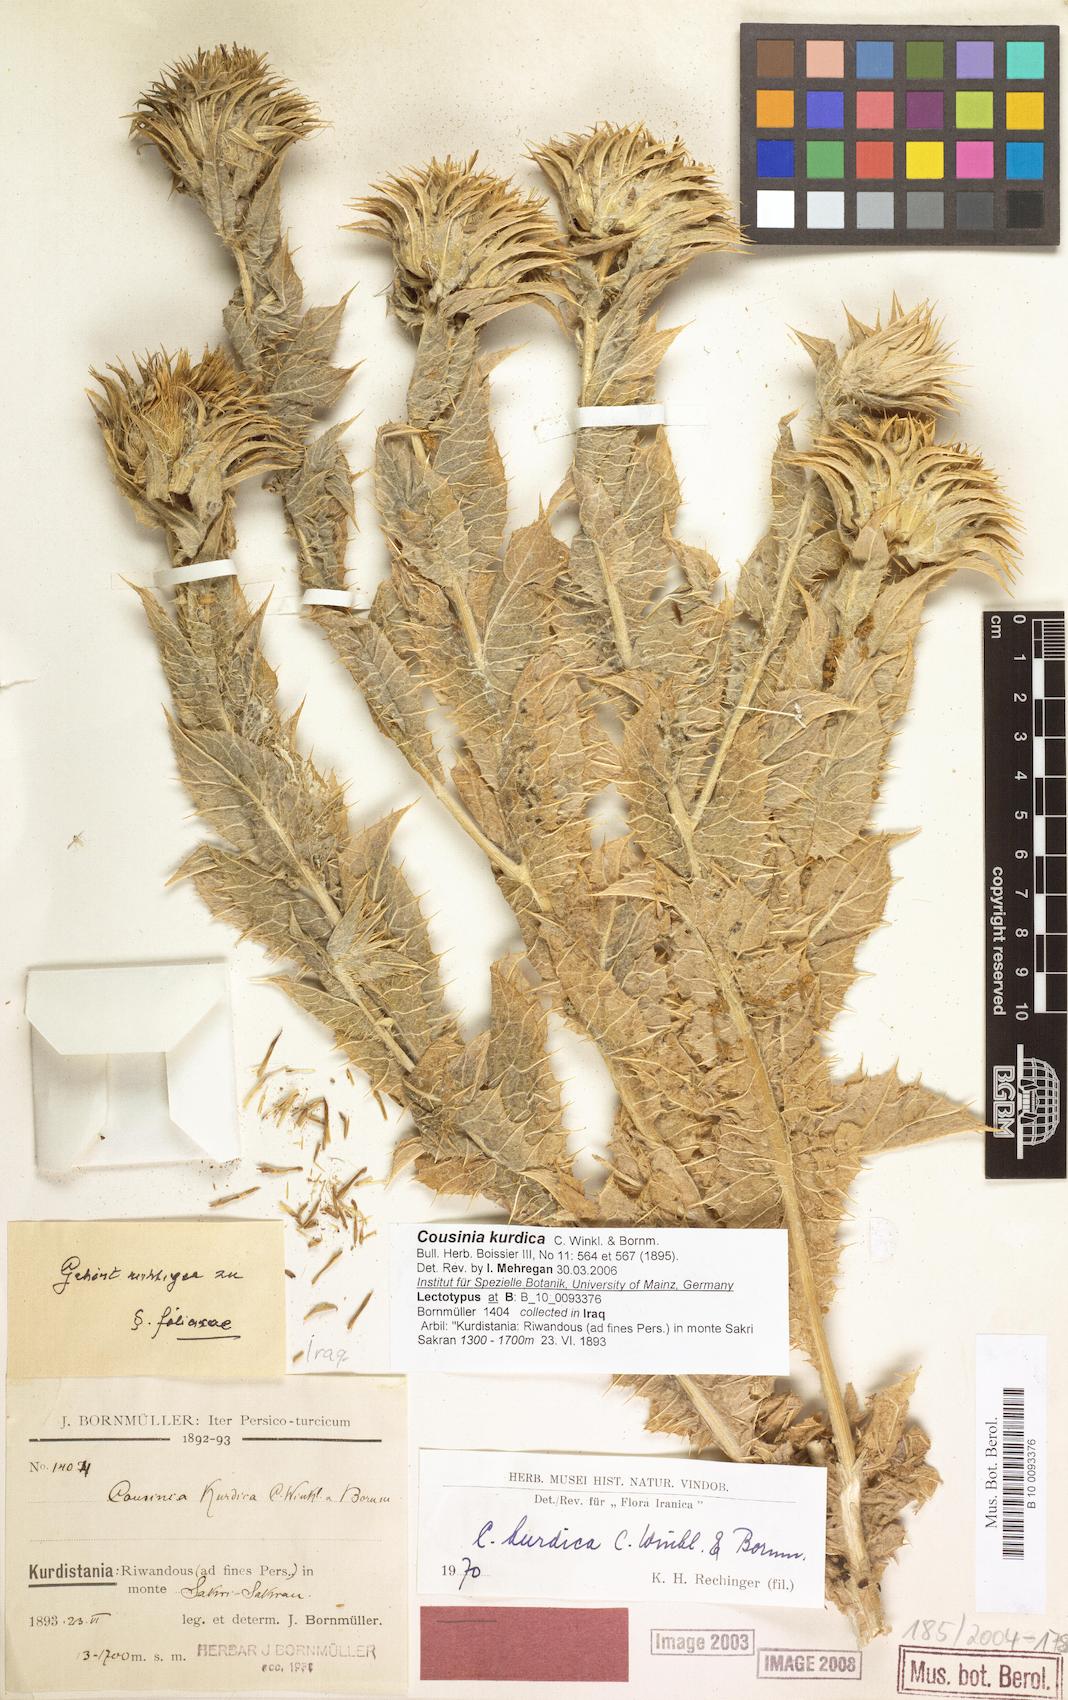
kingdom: Plantae
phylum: Tracheophyta
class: Magnoliopsida
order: Asterales
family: Asteraceae
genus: Cousinia
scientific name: Cousinia odontolepis
